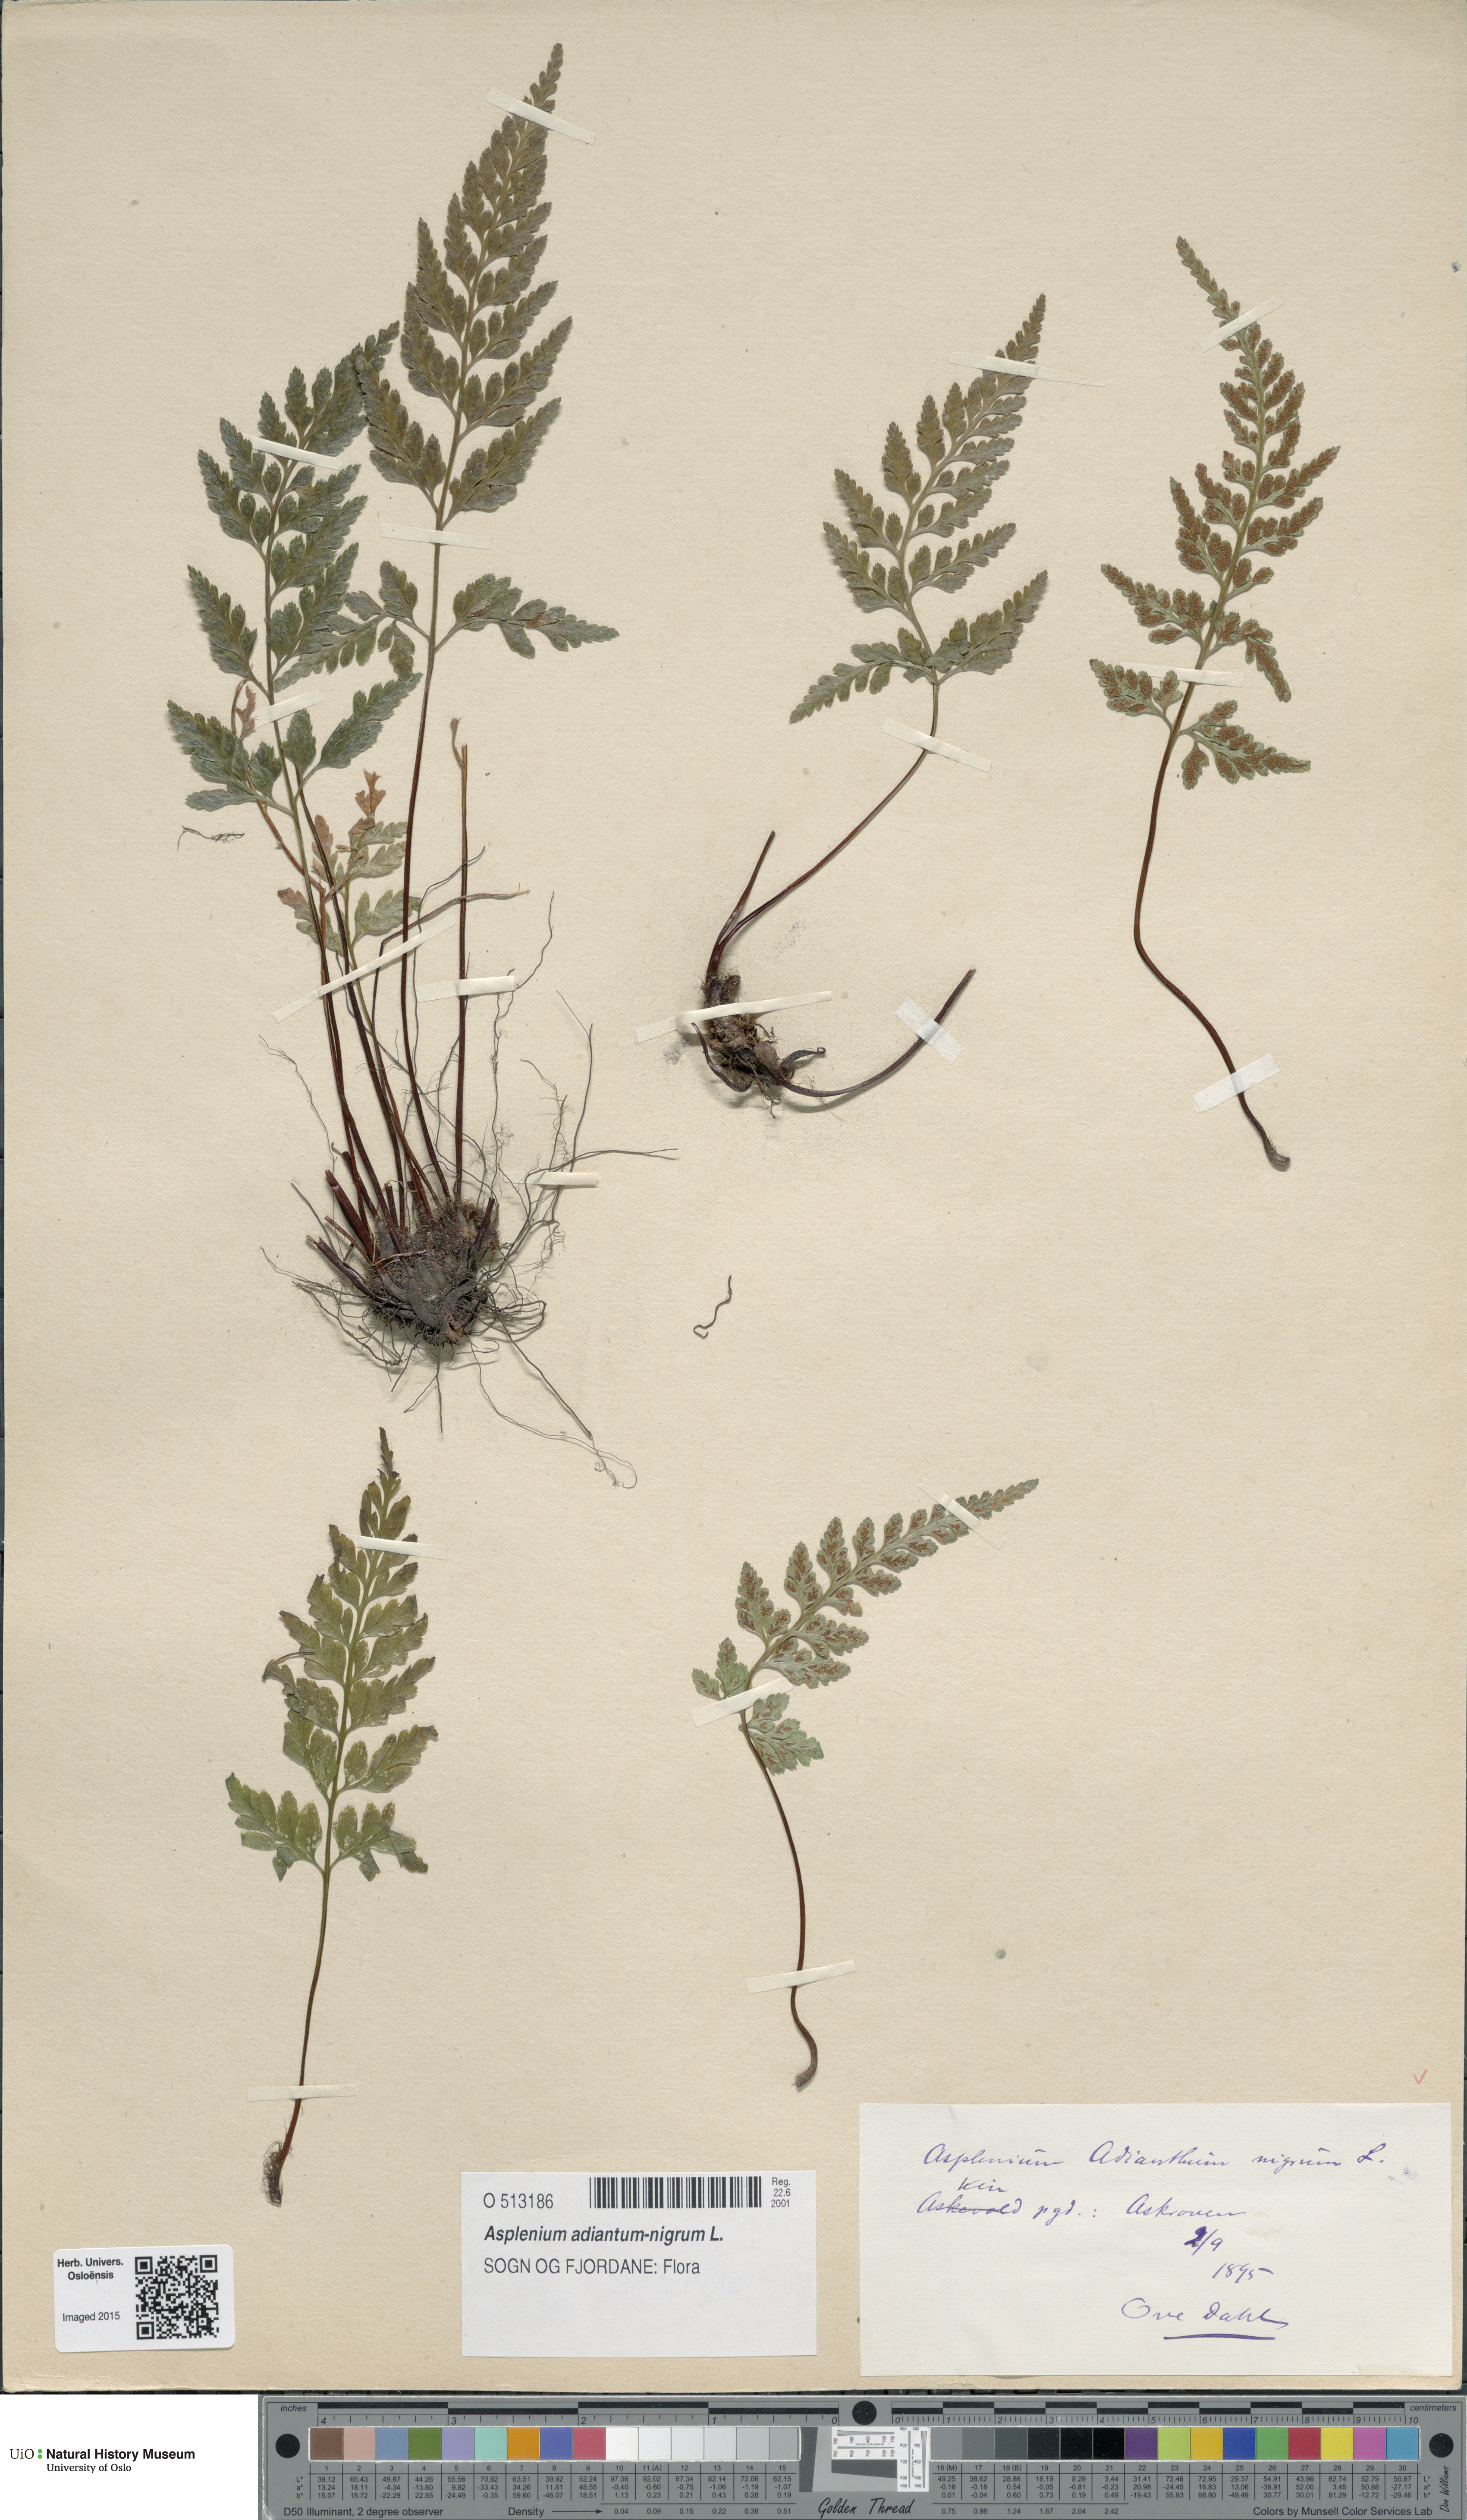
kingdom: Plantae
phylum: Tracheophyta
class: Polypodiopsida
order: Polypodiales
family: Aspleniaceae
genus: Asplenium
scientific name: Asplenium adiantum-nigrum
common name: Black spleenwort
